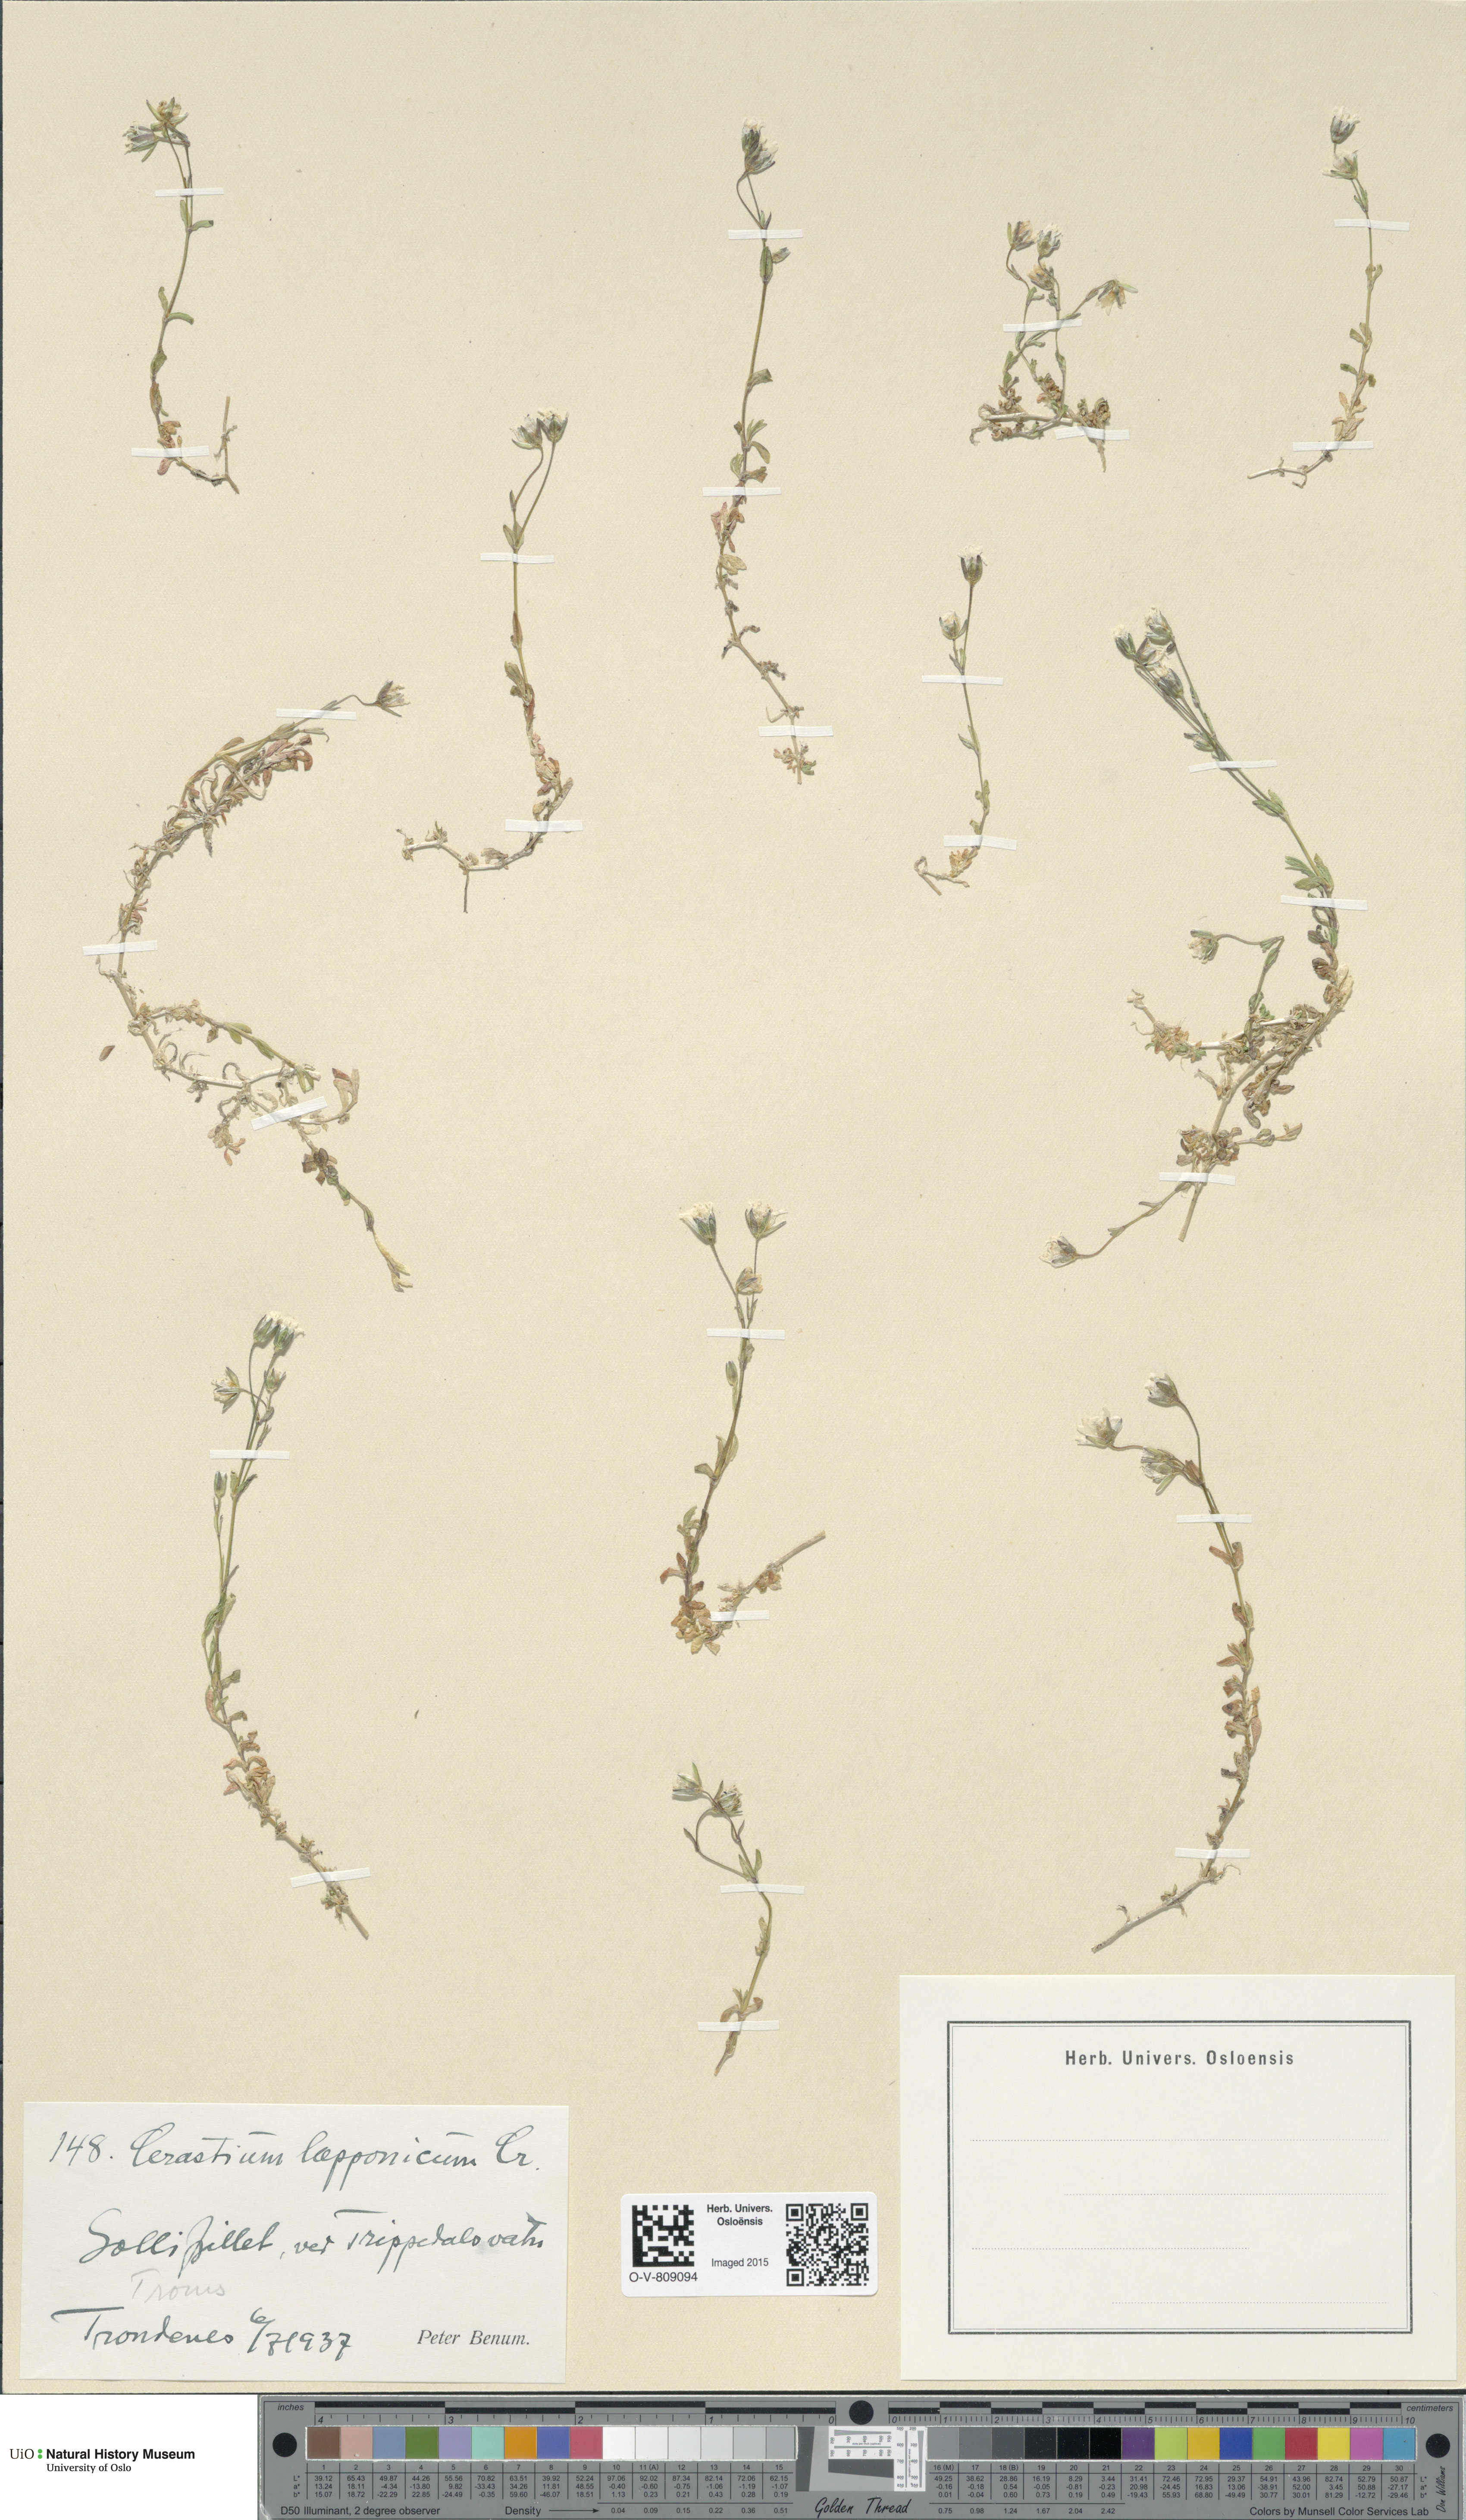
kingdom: Plantae
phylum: Tracheophyta
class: Magnoliopsida
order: Caryophyllales
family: Caryophyllaceae
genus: Dichodon
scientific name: Dichodon cerastoides
